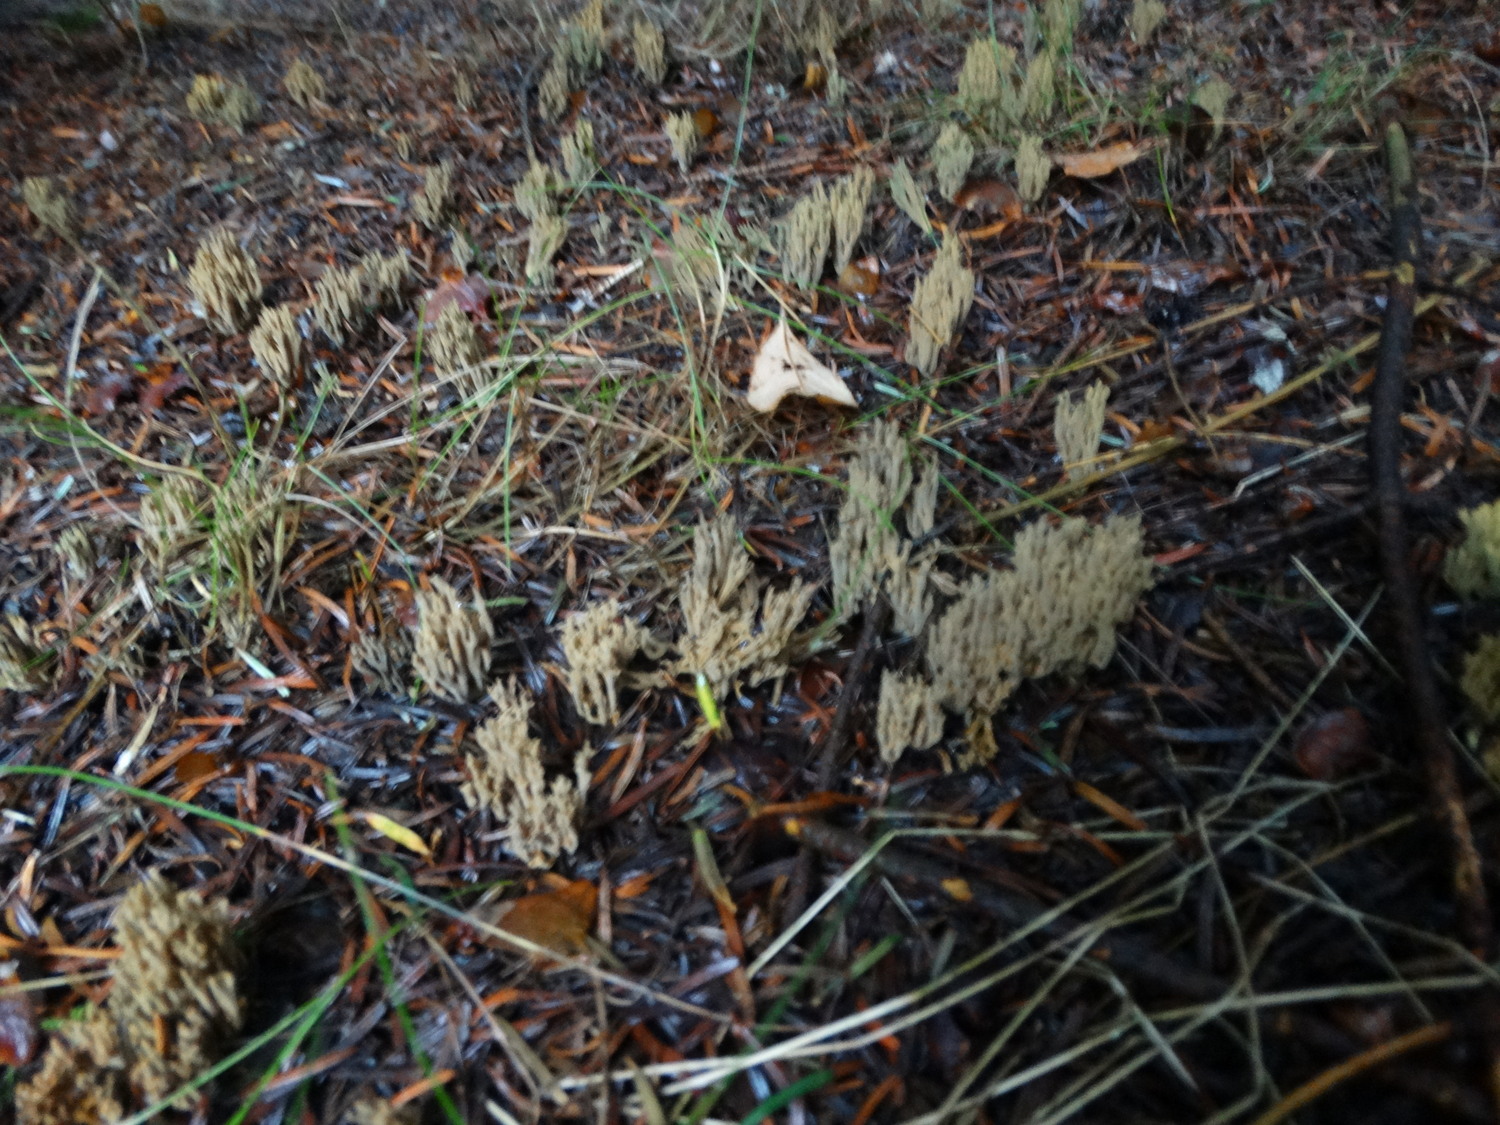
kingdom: Fungi
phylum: Basidiomycota
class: Agaricomycetes
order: Gomphales
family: Gomphaceae
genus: Phaeoclavulina
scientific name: Phaeoclavulina abietina
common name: gulgrøn koralsvamp
